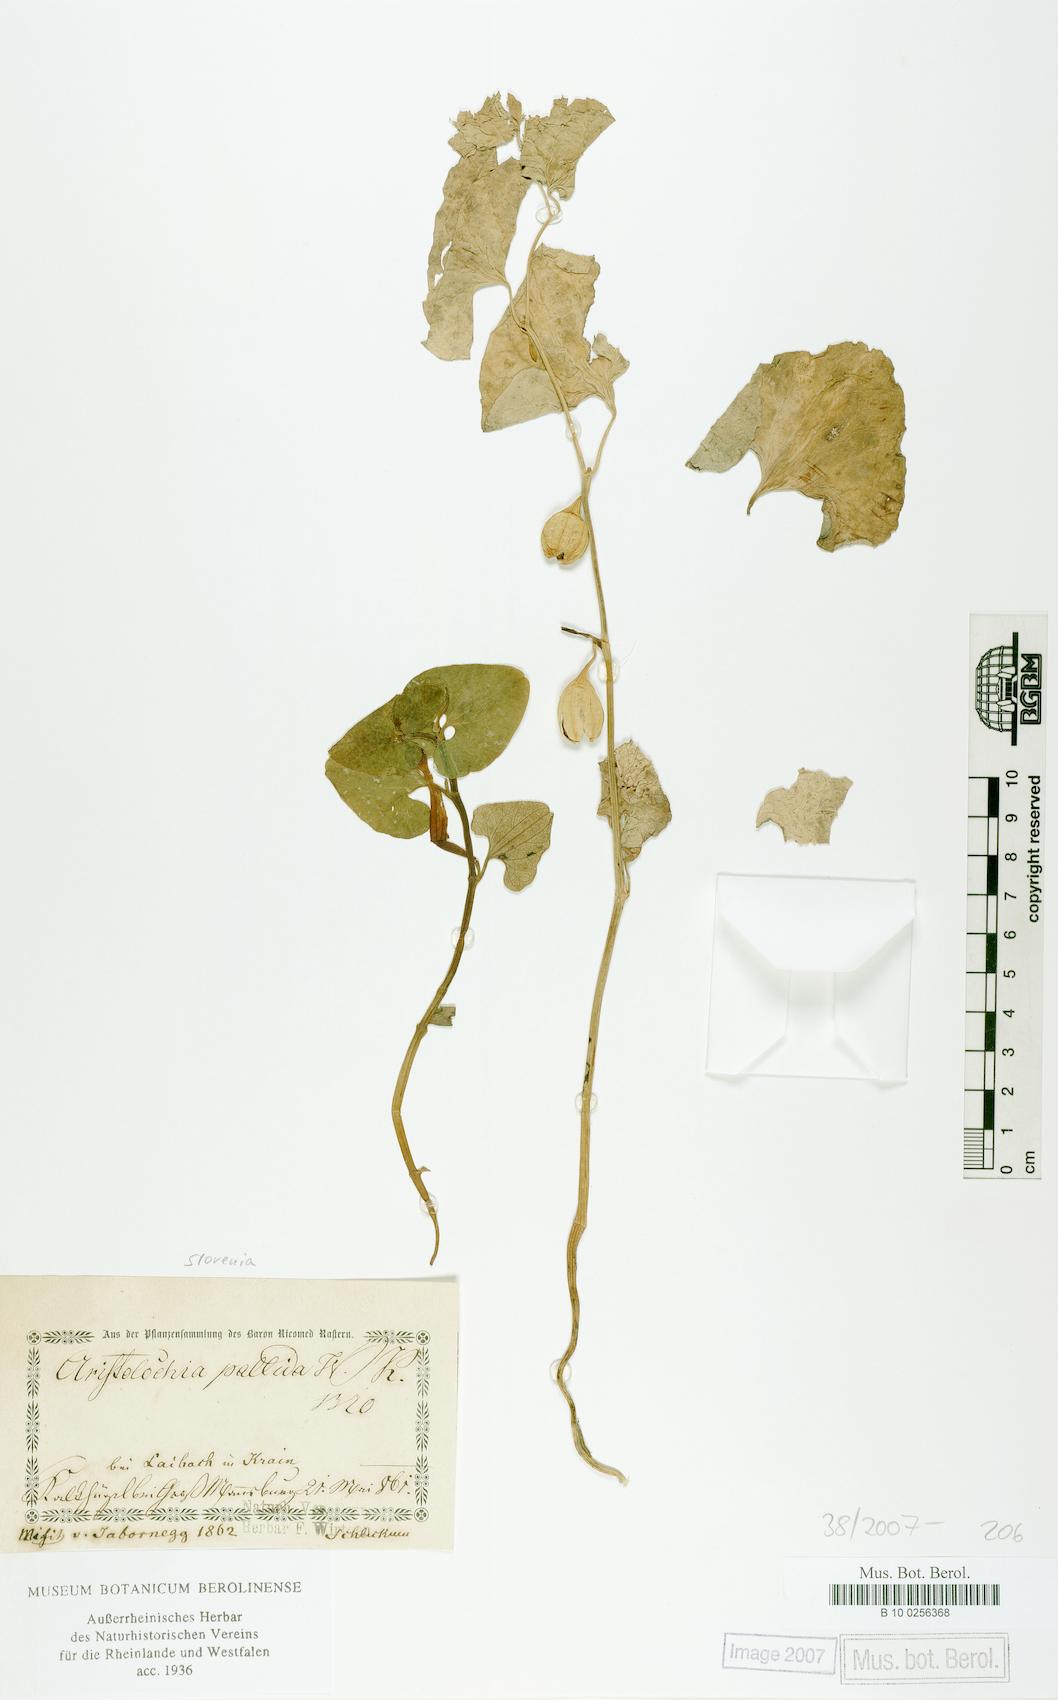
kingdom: Plantae
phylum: Tracheophyta
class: Magnoliopsida
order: Piperales
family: Aristolochiaceae
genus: Aristolochia
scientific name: Aristolochia pallida
